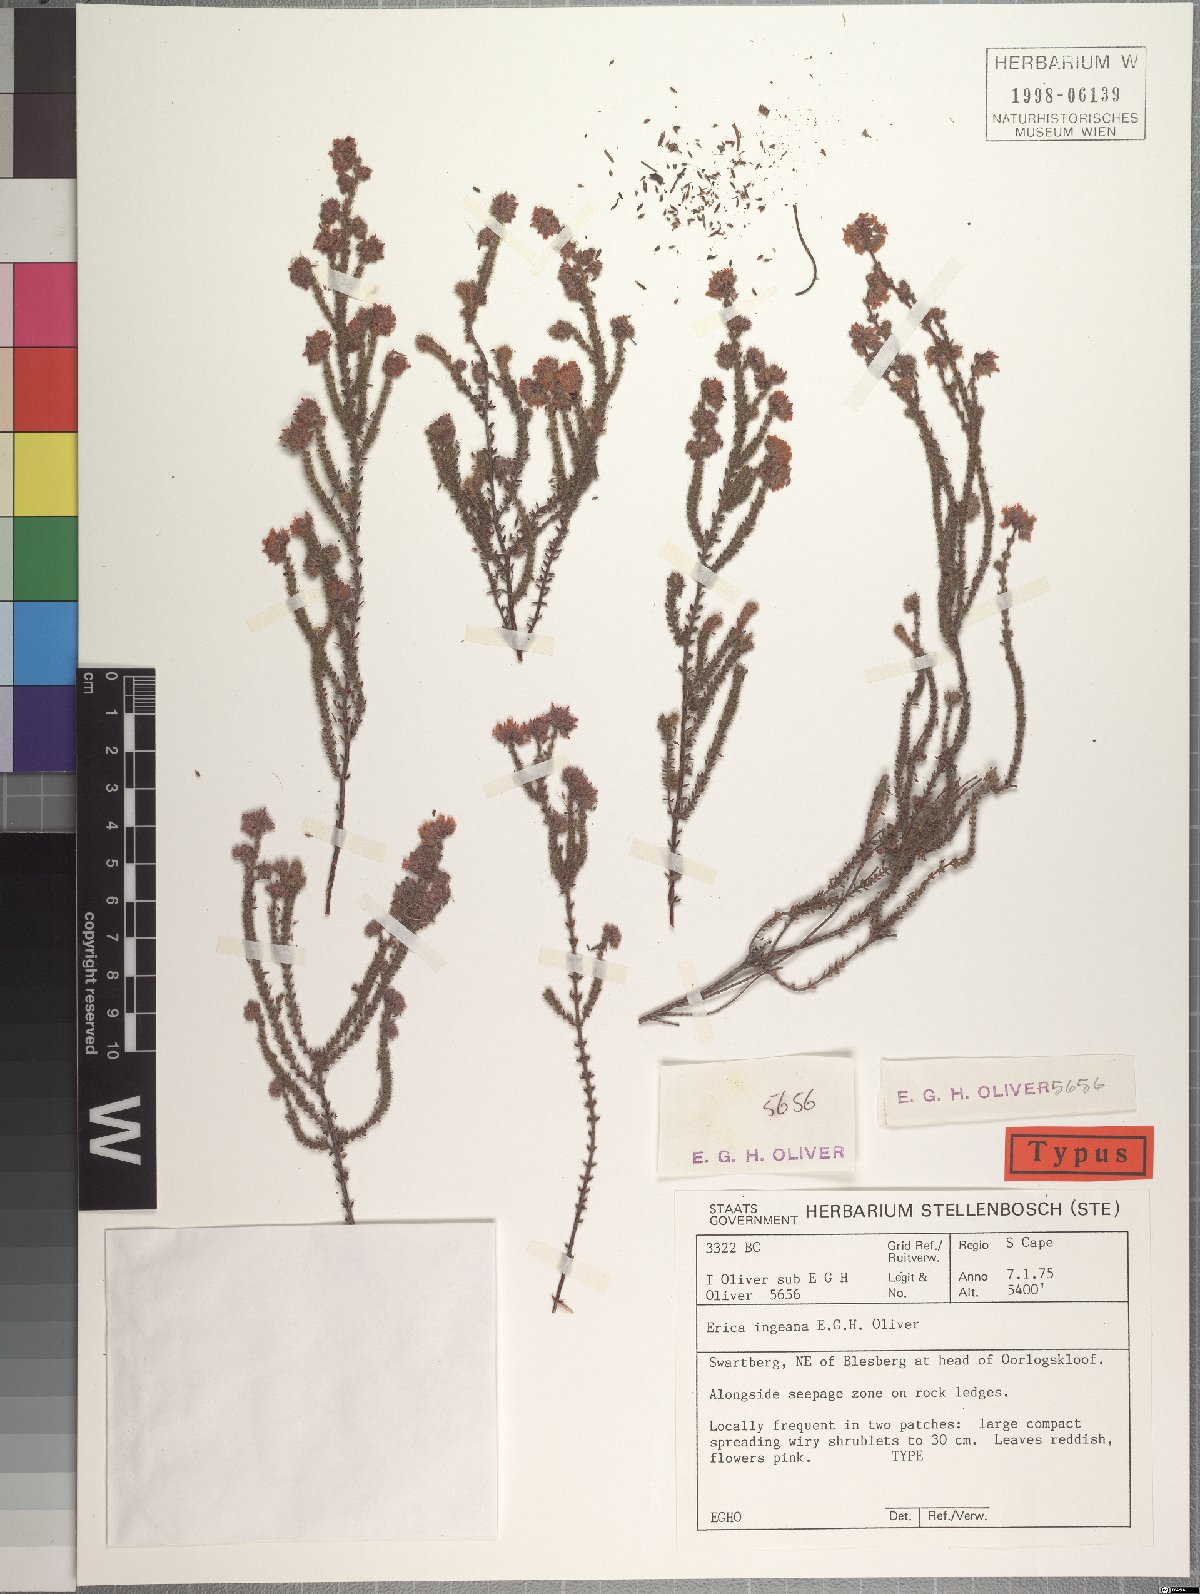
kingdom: Plantae
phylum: Tracheophyta
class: Magnoliopsida
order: Ericales
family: Ericaceae
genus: Erica
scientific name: Erica ingeana
